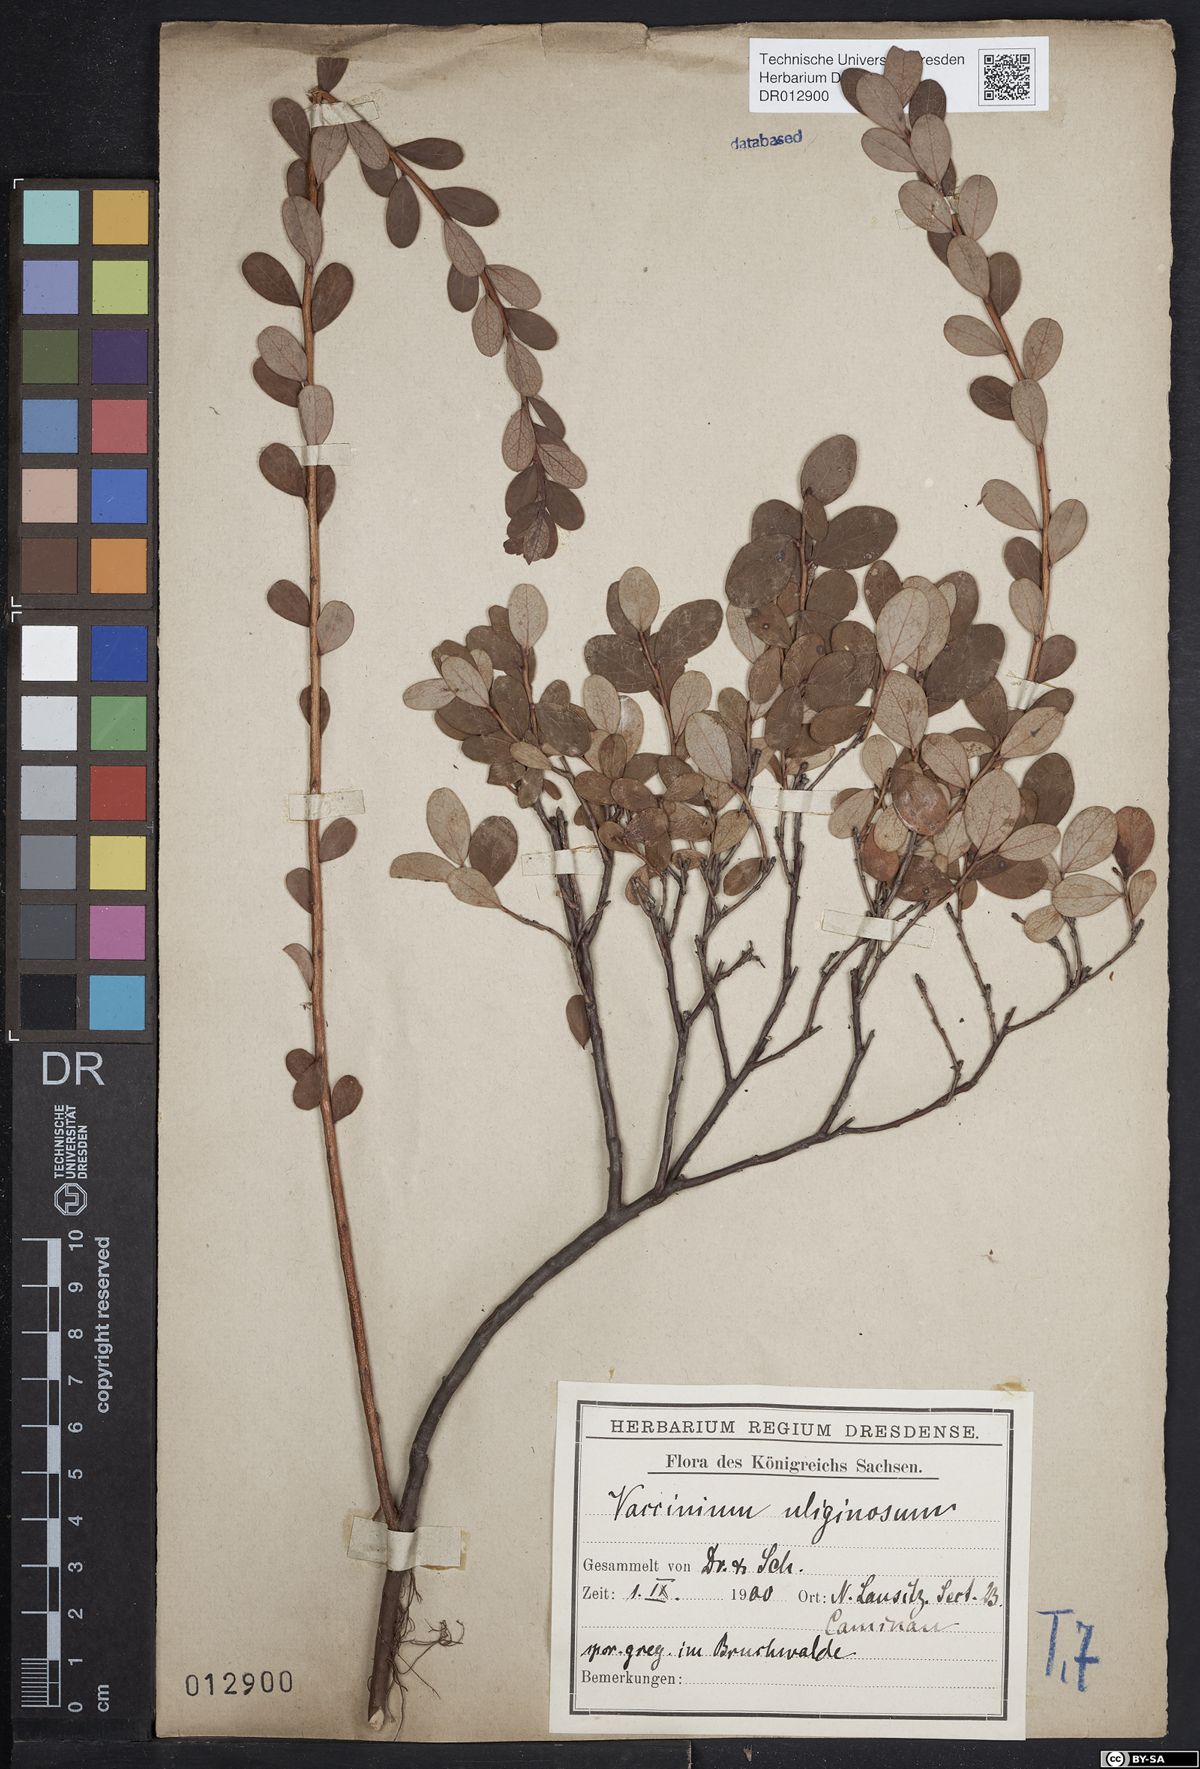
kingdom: Plantae
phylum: Tracheophyta
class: Magnoliopsida
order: Ericales
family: Ericaceae
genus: Vaccinium
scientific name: Vaccinium uliginosum
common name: Bog bilberry
